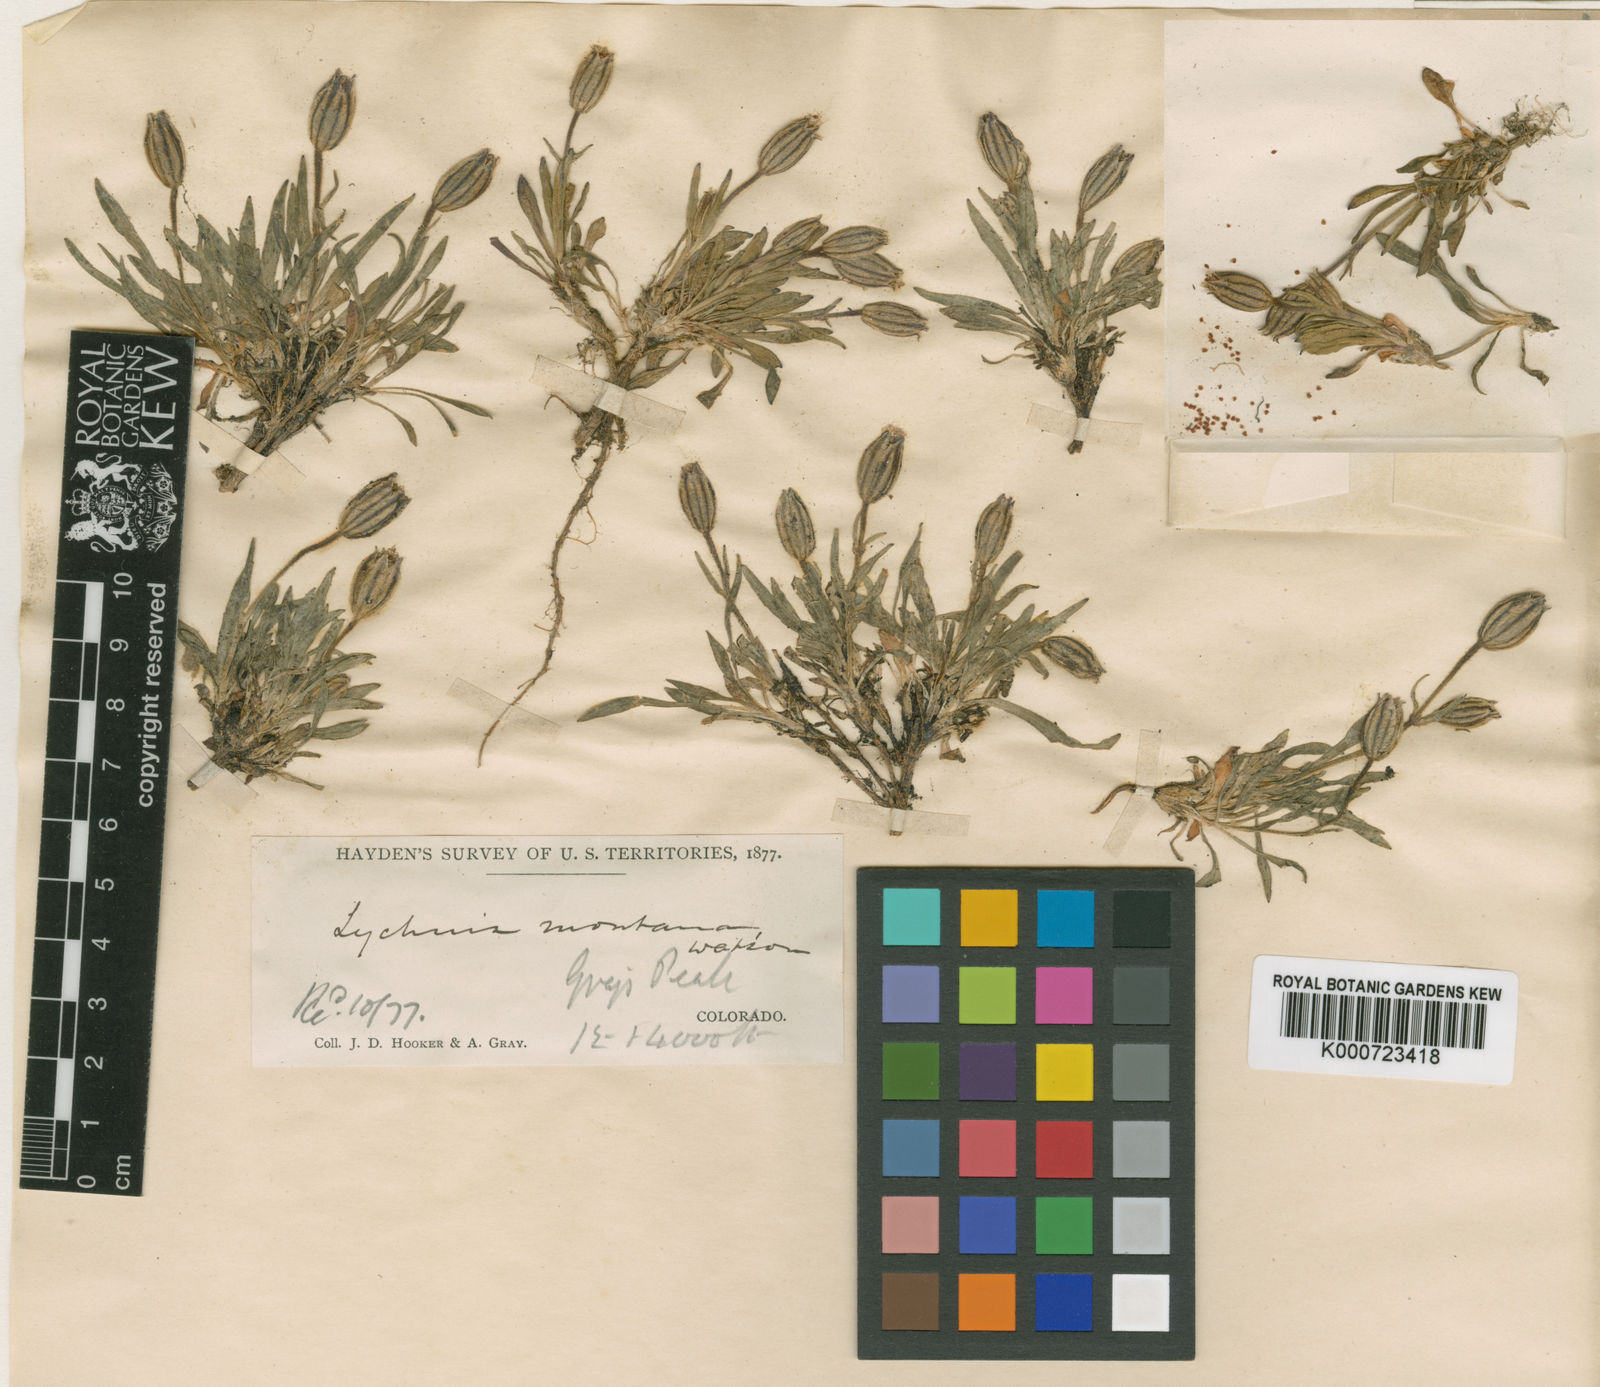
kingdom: Plantae
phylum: Tracheophyta
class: Magnoliopsida
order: Caryophyllales
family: Caryophyllaceae
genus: Silene
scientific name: Silene hitchguirei
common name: Mountain catchfly
